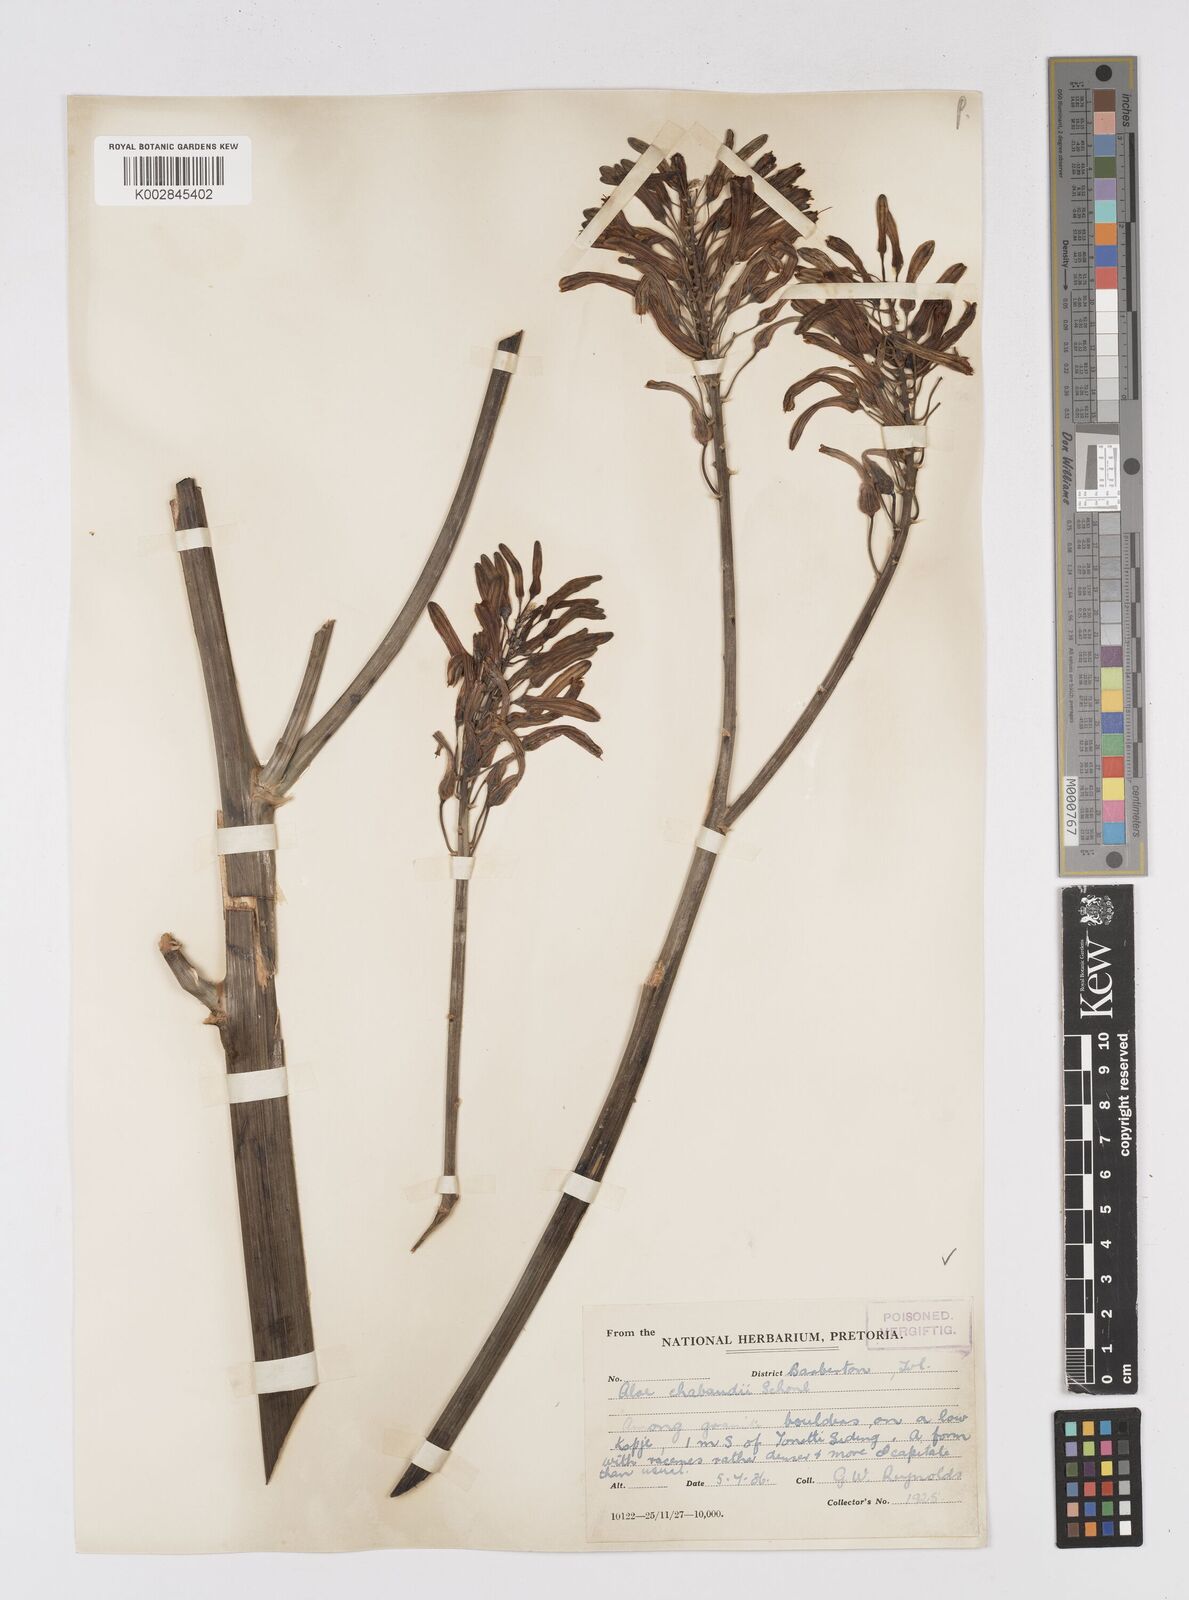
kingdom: Plantae
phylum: Tracheophyta
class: Liliopsida
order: Asparagales
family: Asphodelaceae
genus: Aloe
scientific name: Aloe chabaudii
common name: Chabaud's aloe
